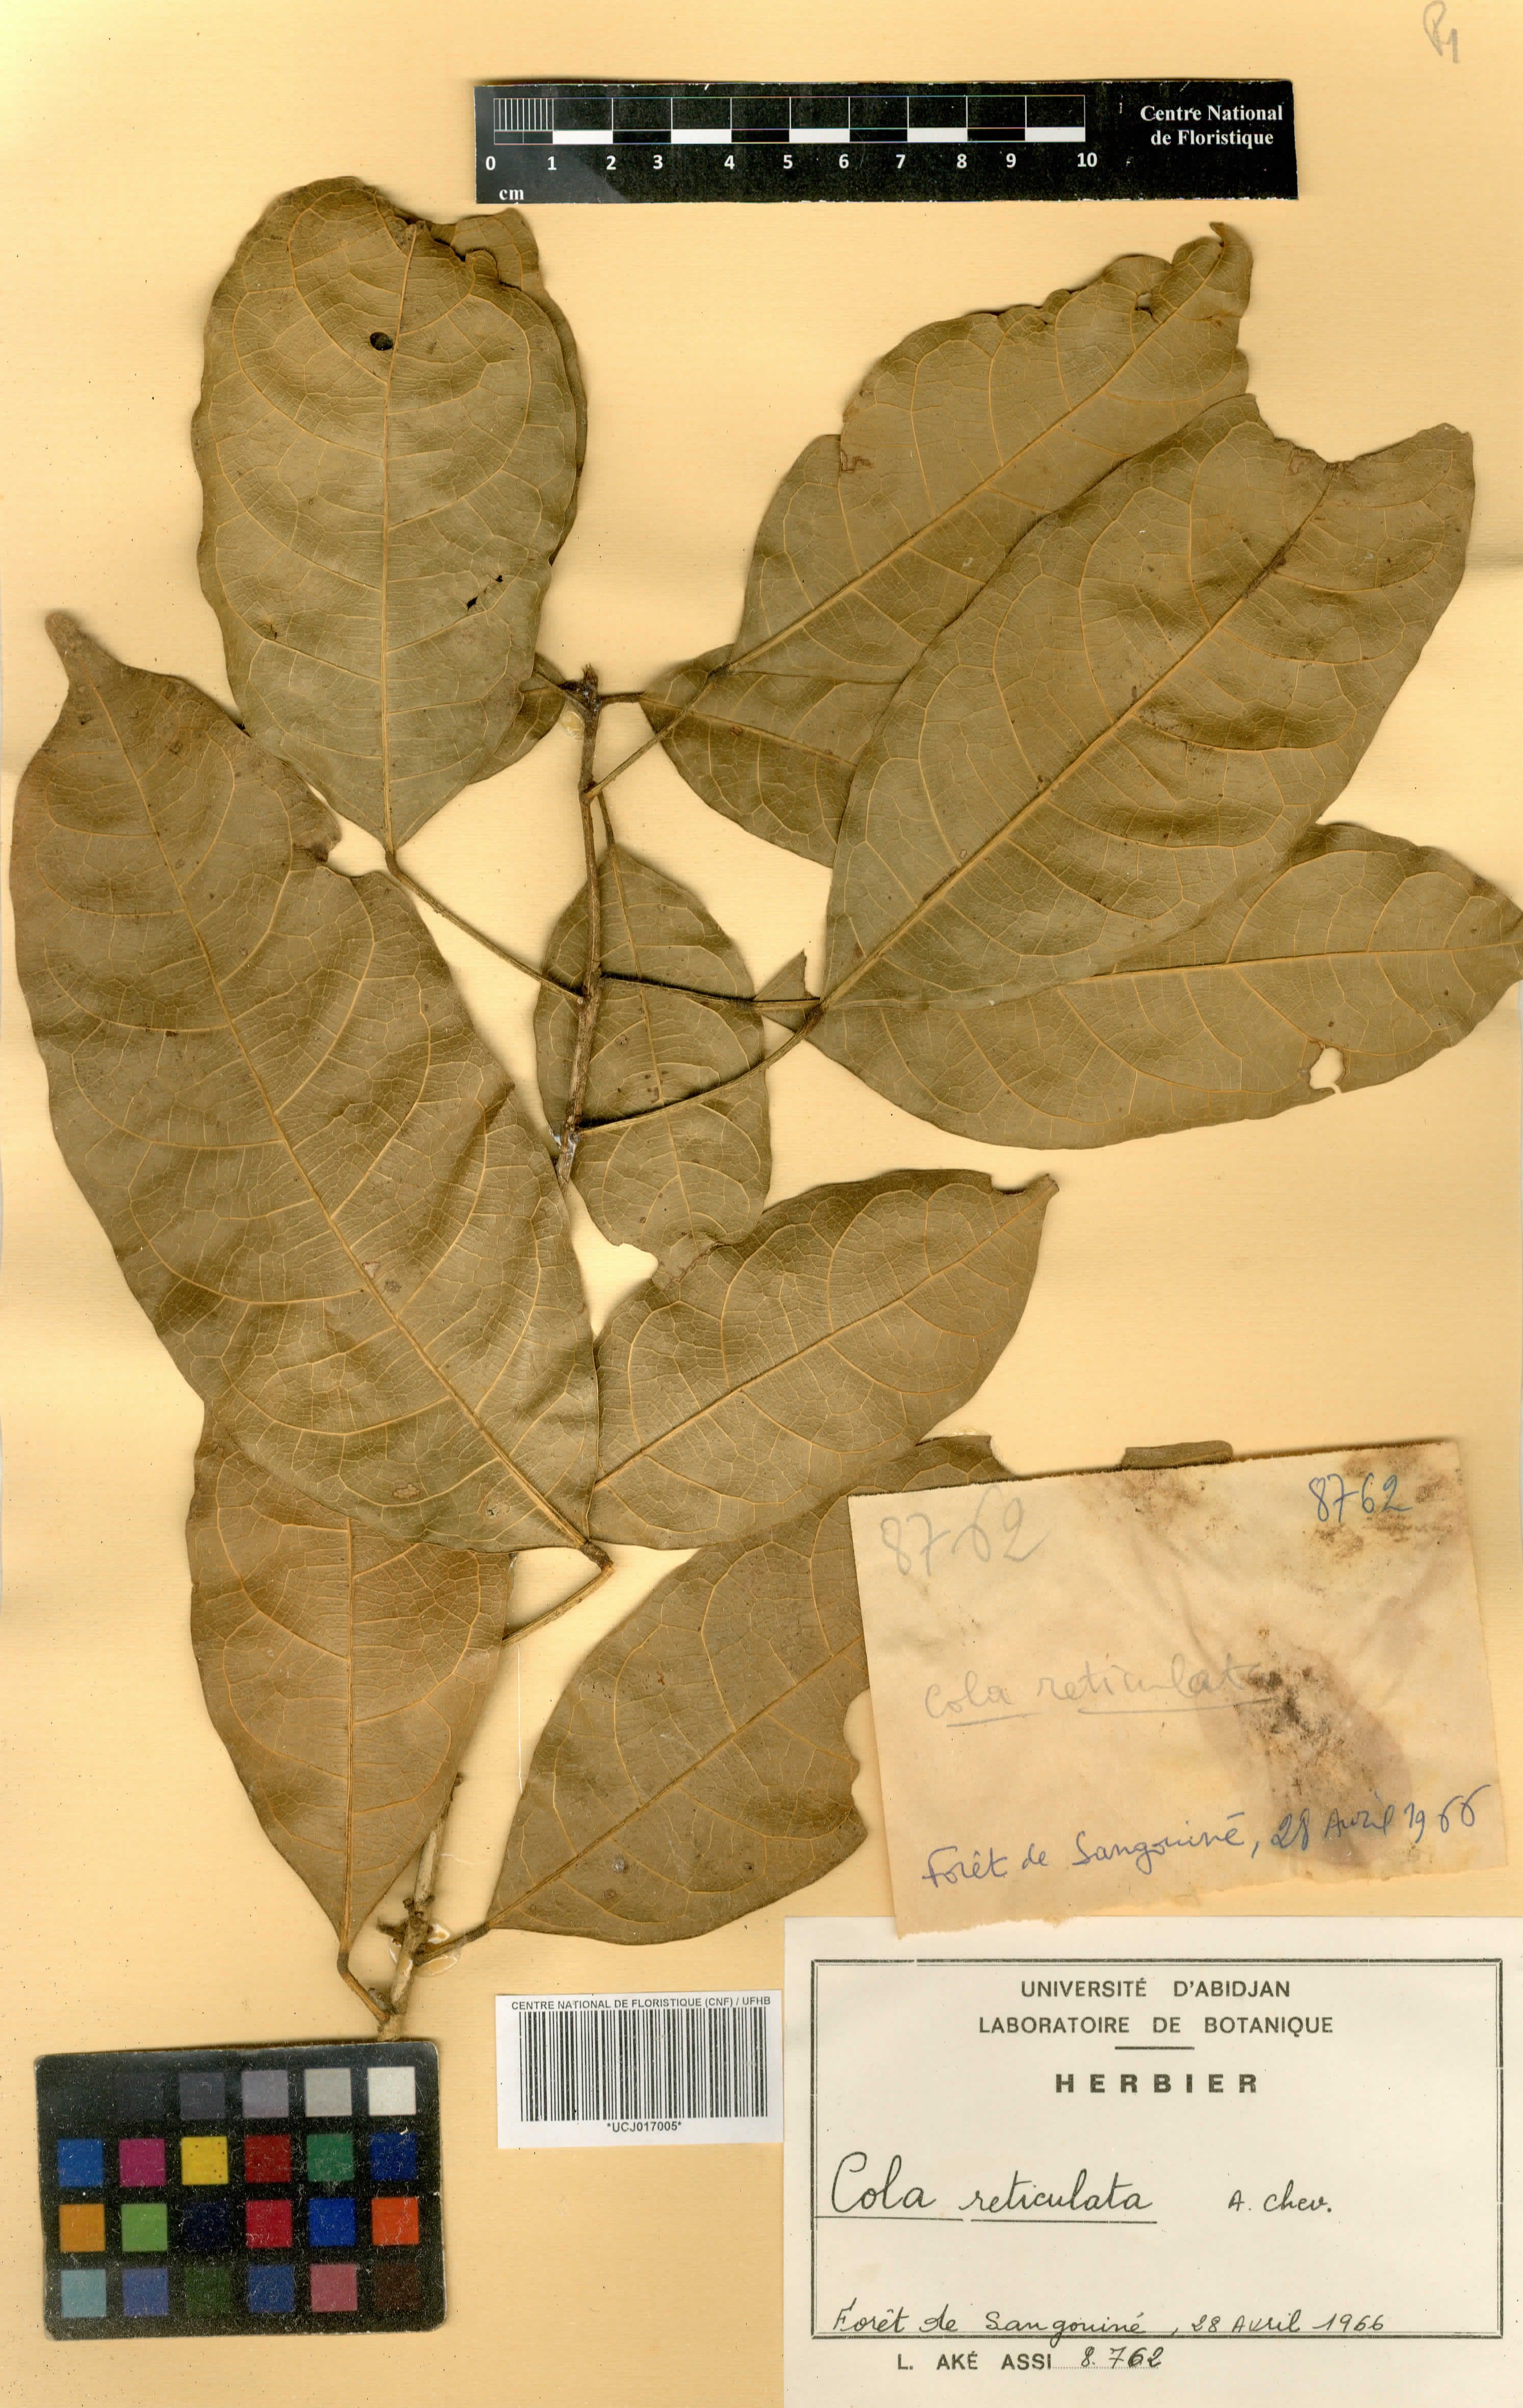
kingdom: Plantae
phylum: Tracheophyta
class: Magnoliopsida
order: Malvales
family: Malvaceae
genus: Cola
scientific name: Cola reticulata
